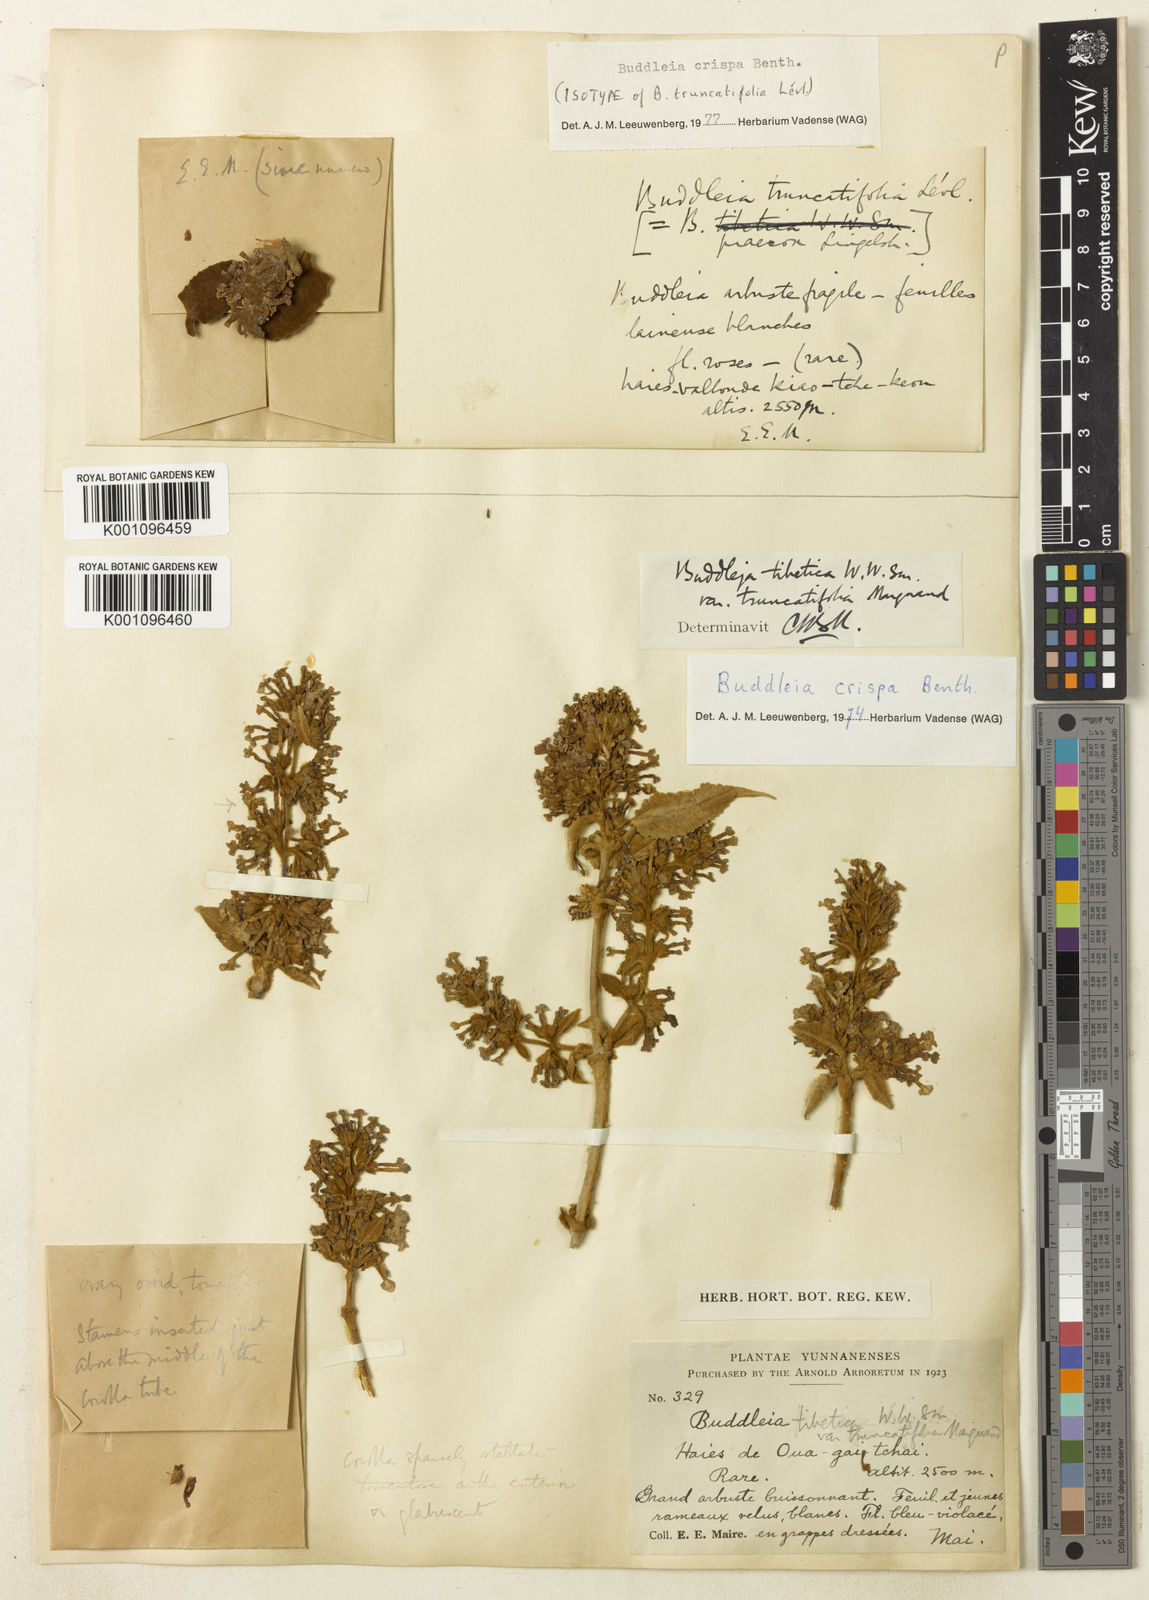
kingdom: Plantae
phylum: Tracheophyta
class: Magnoliopsida
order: Lamiales
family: Scrophulariaceae
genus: Buddleja
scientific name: Buddleja crispa
